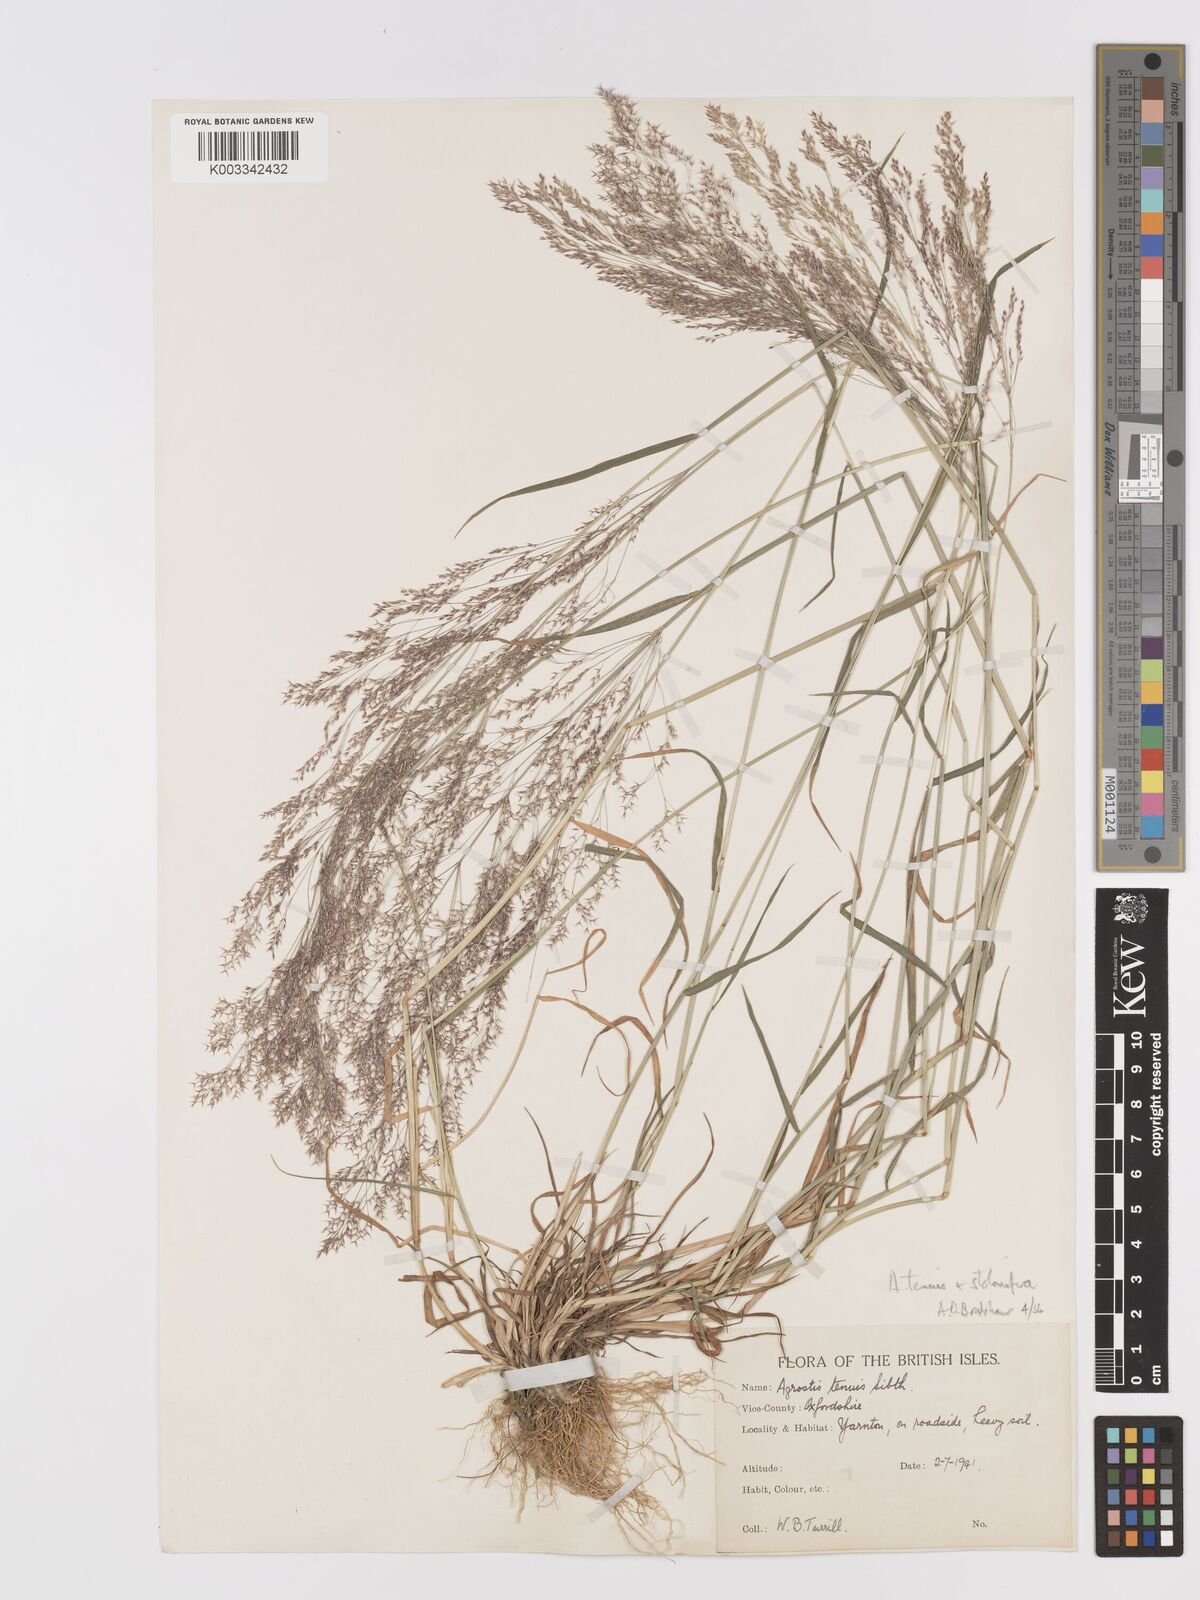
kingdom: Plantae
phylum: Tracheophyta
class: Liliopsida
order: Poales
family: Poaceae
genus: Agrostis
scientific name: Agrostis capillaris
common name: Colonial bentgrass
